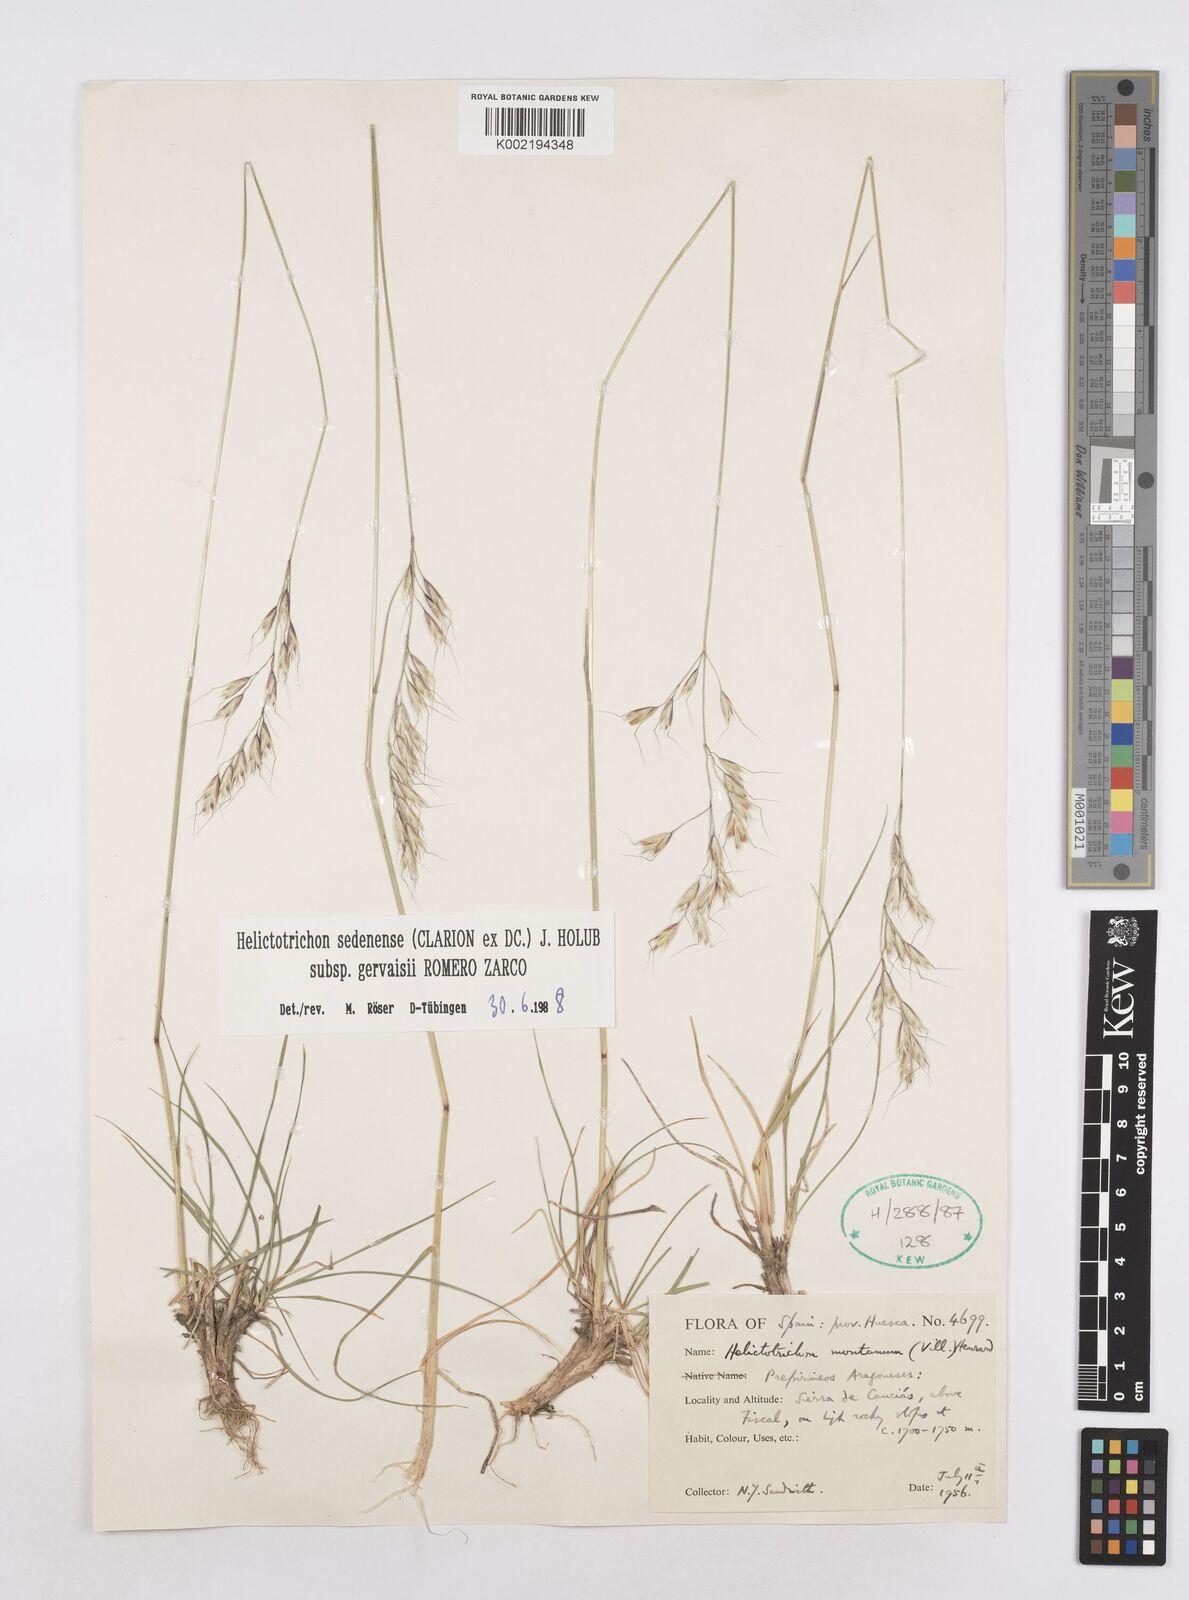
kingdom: Plantae
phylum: Tracheophyta
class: Liliopsida
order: Poales
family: Poaceae
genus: Helictotrichon
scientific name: Helictotrichon sedenense
